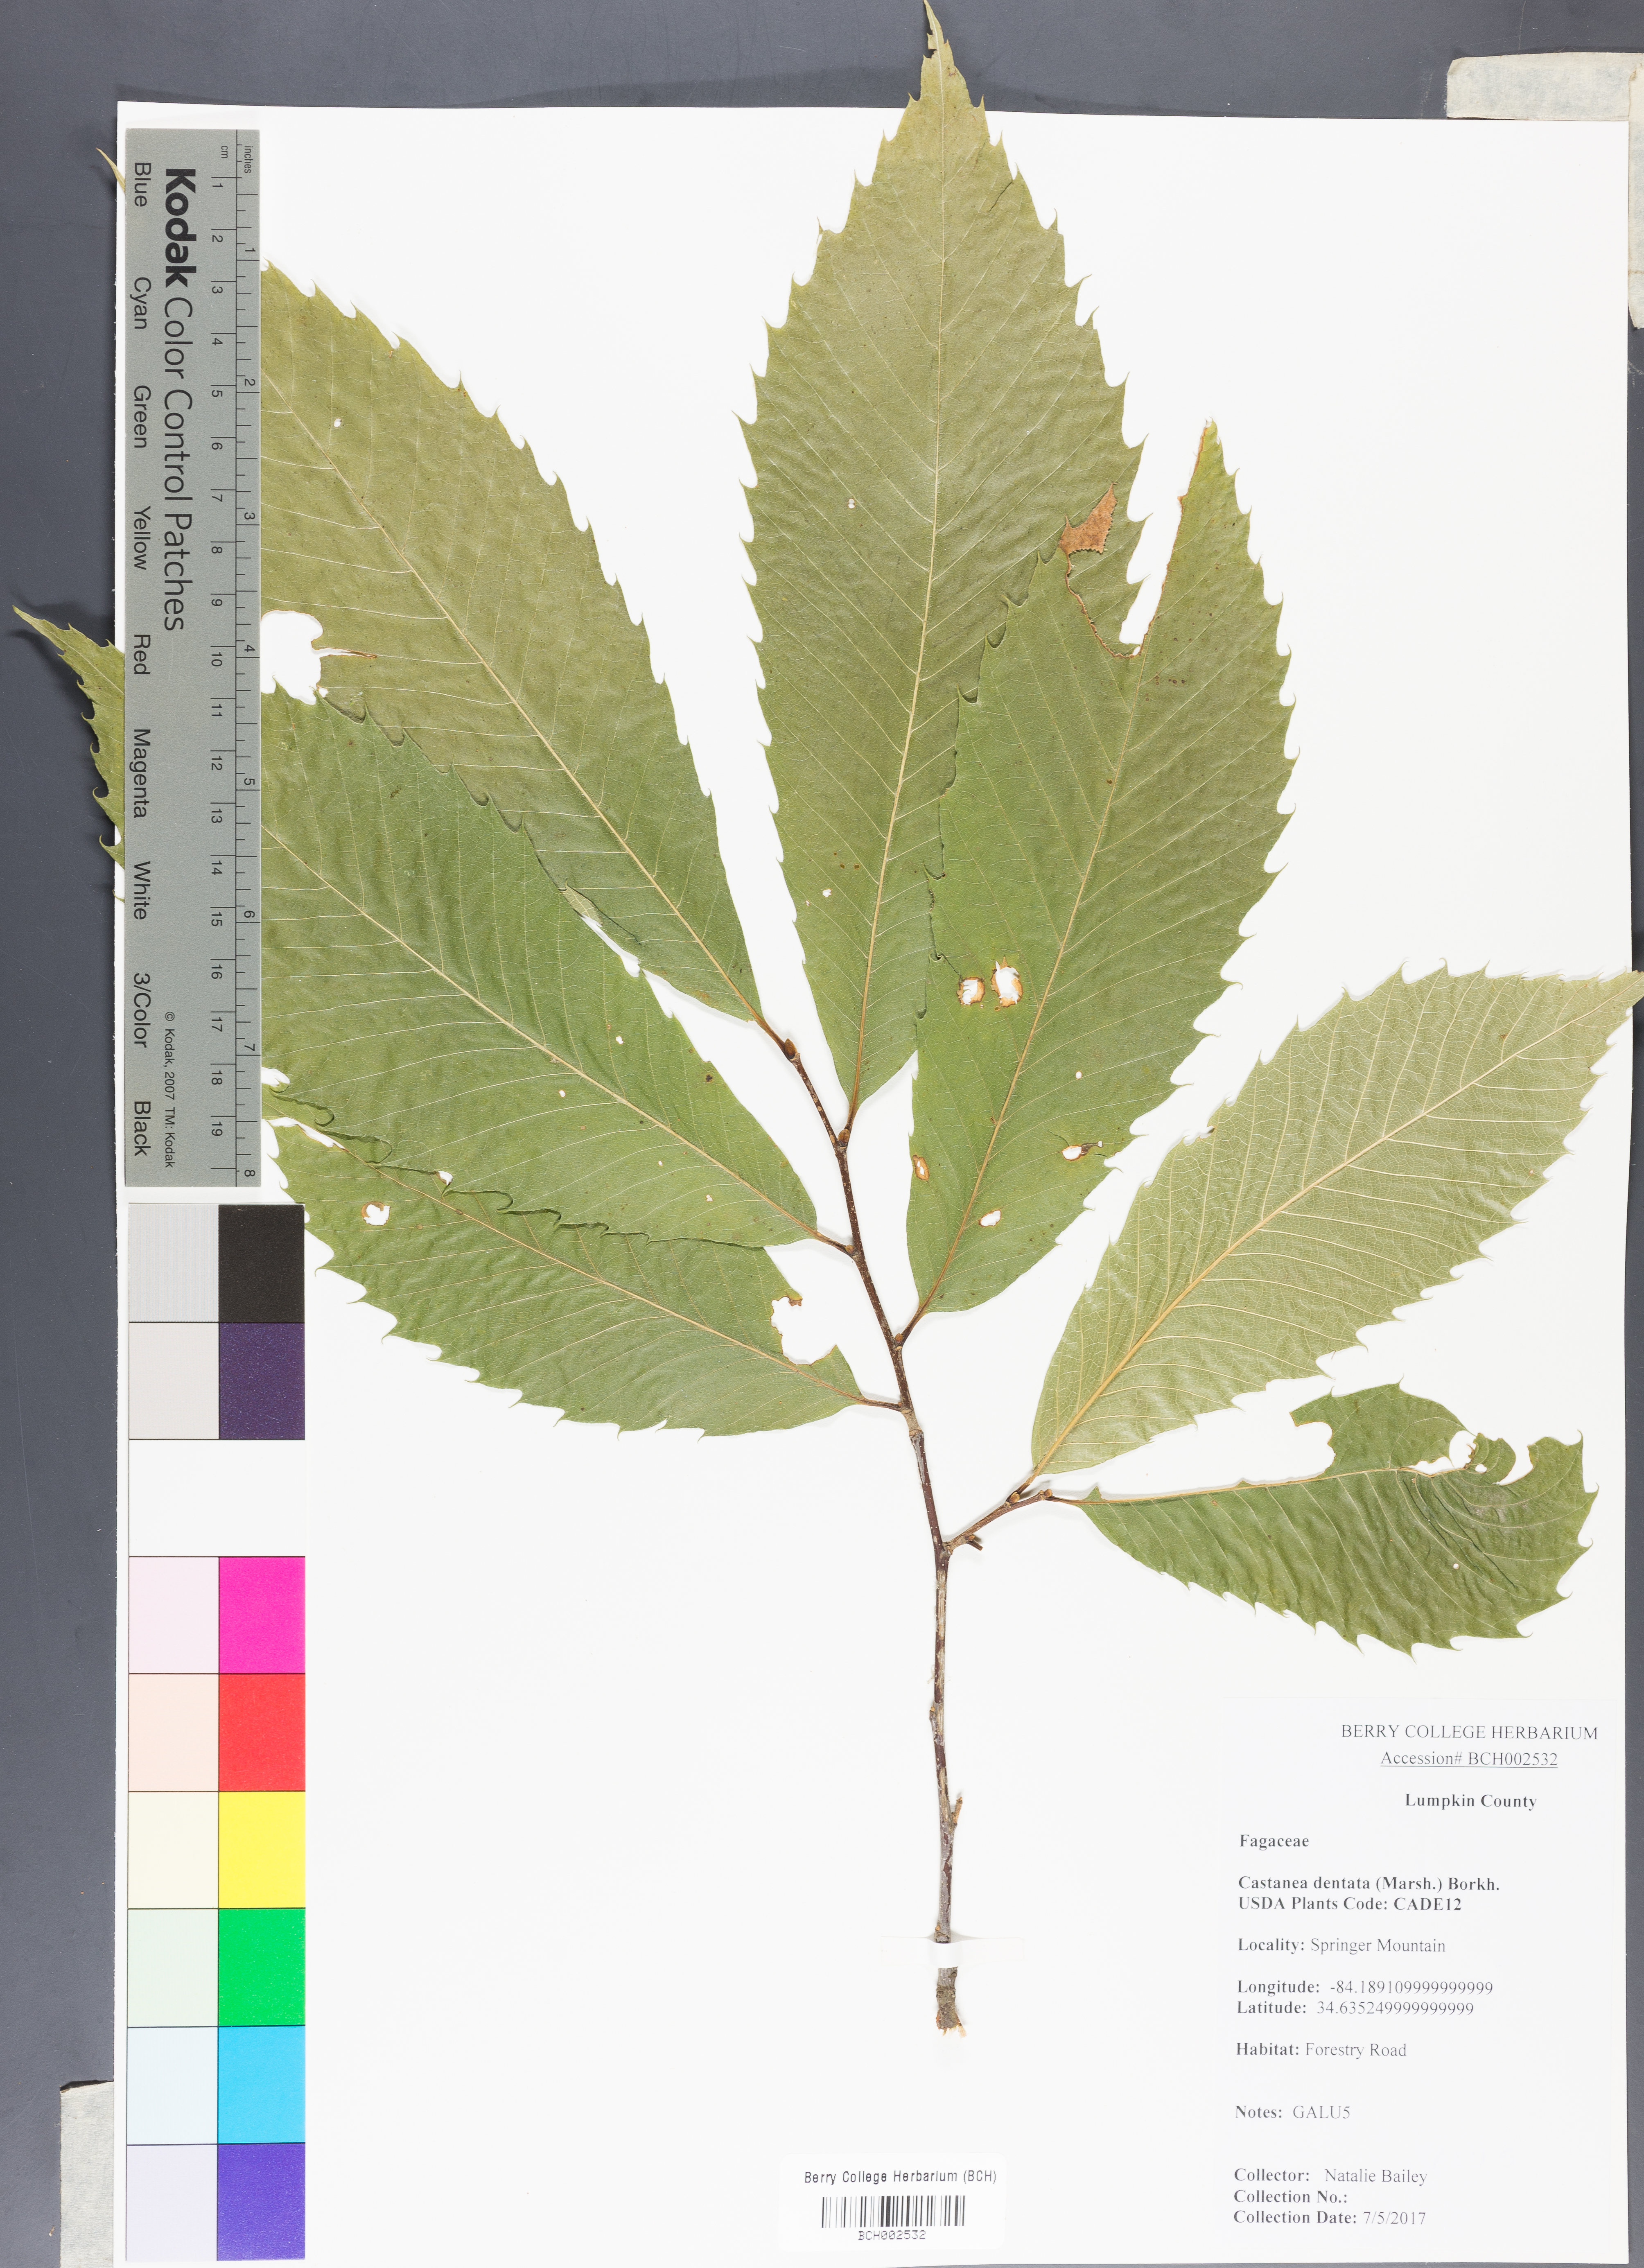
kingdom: Plantae
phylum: Tracheophyta
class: Magnoliopsida
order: Fagales
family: Fagaceae
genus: Castanea
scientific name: Castanea dentata
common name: American chestnut
